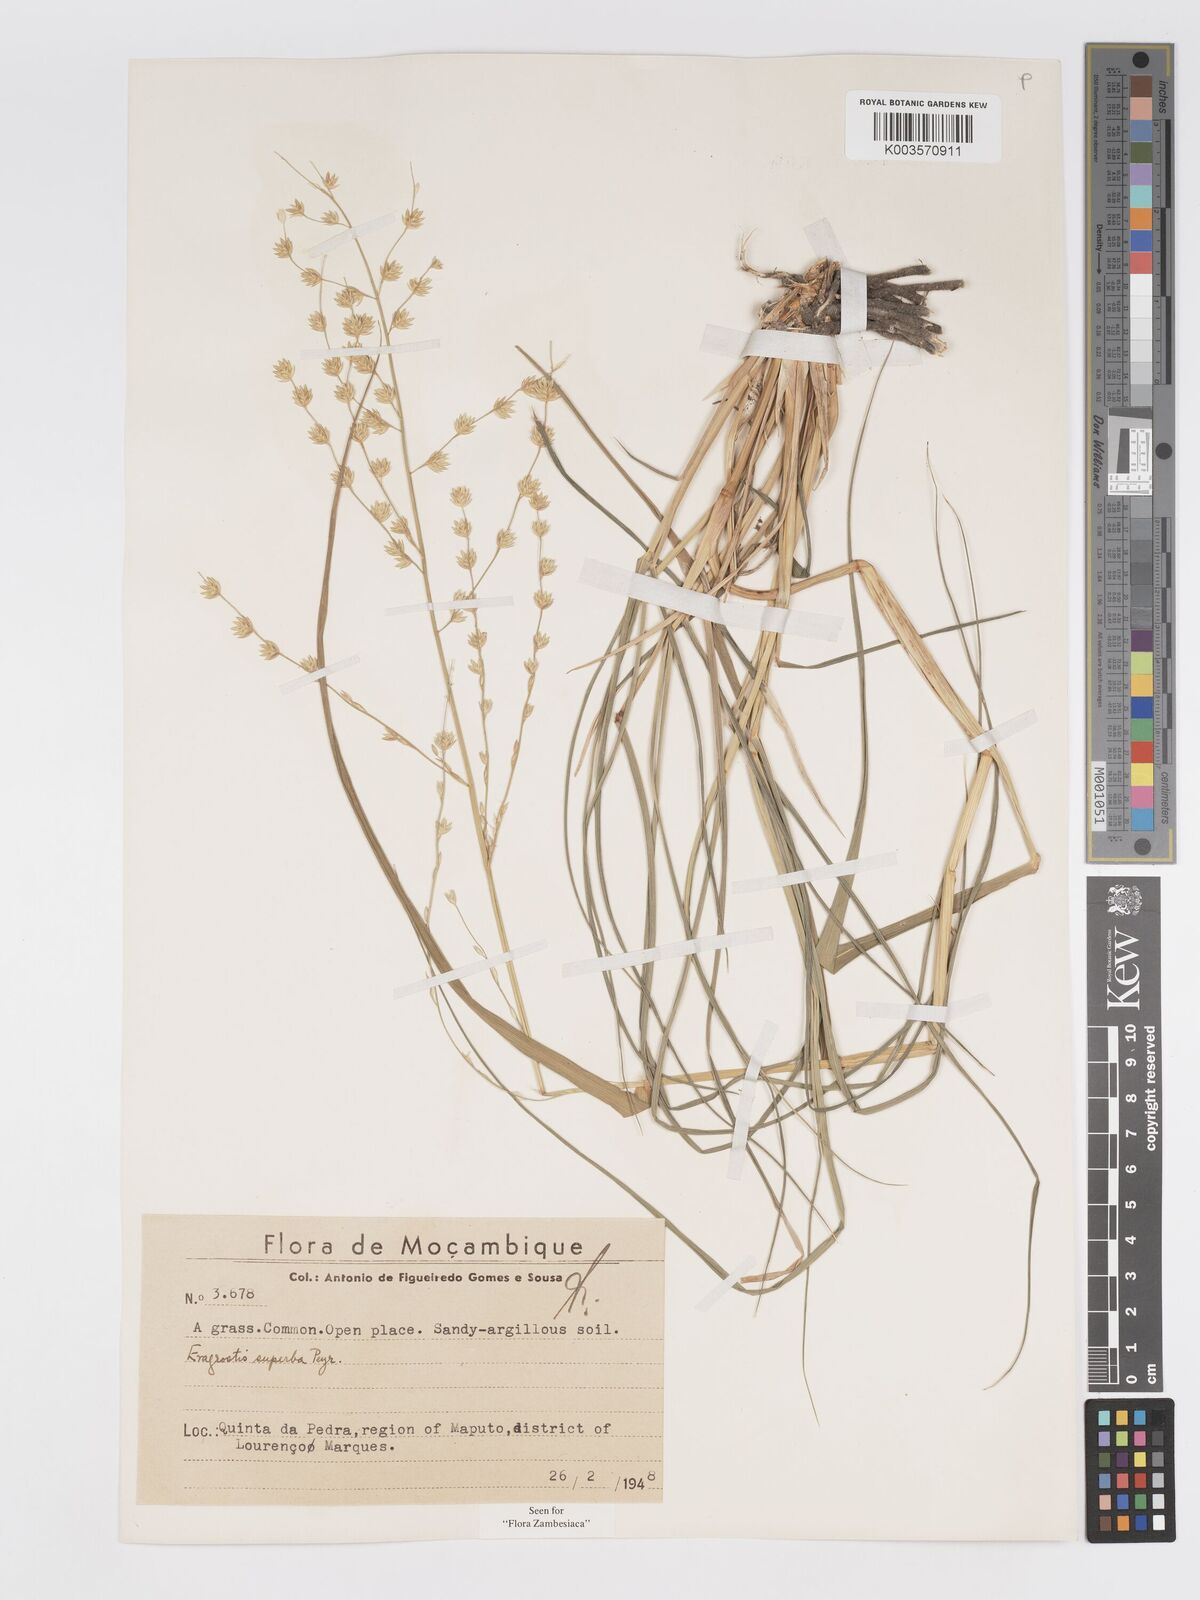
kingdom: Plantae
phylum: Tracheophyta
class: Liliopsida
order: Poales
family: Poaceae
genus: Eragrostis
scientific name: Eragrostis superba
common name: Wilman lovegrass
